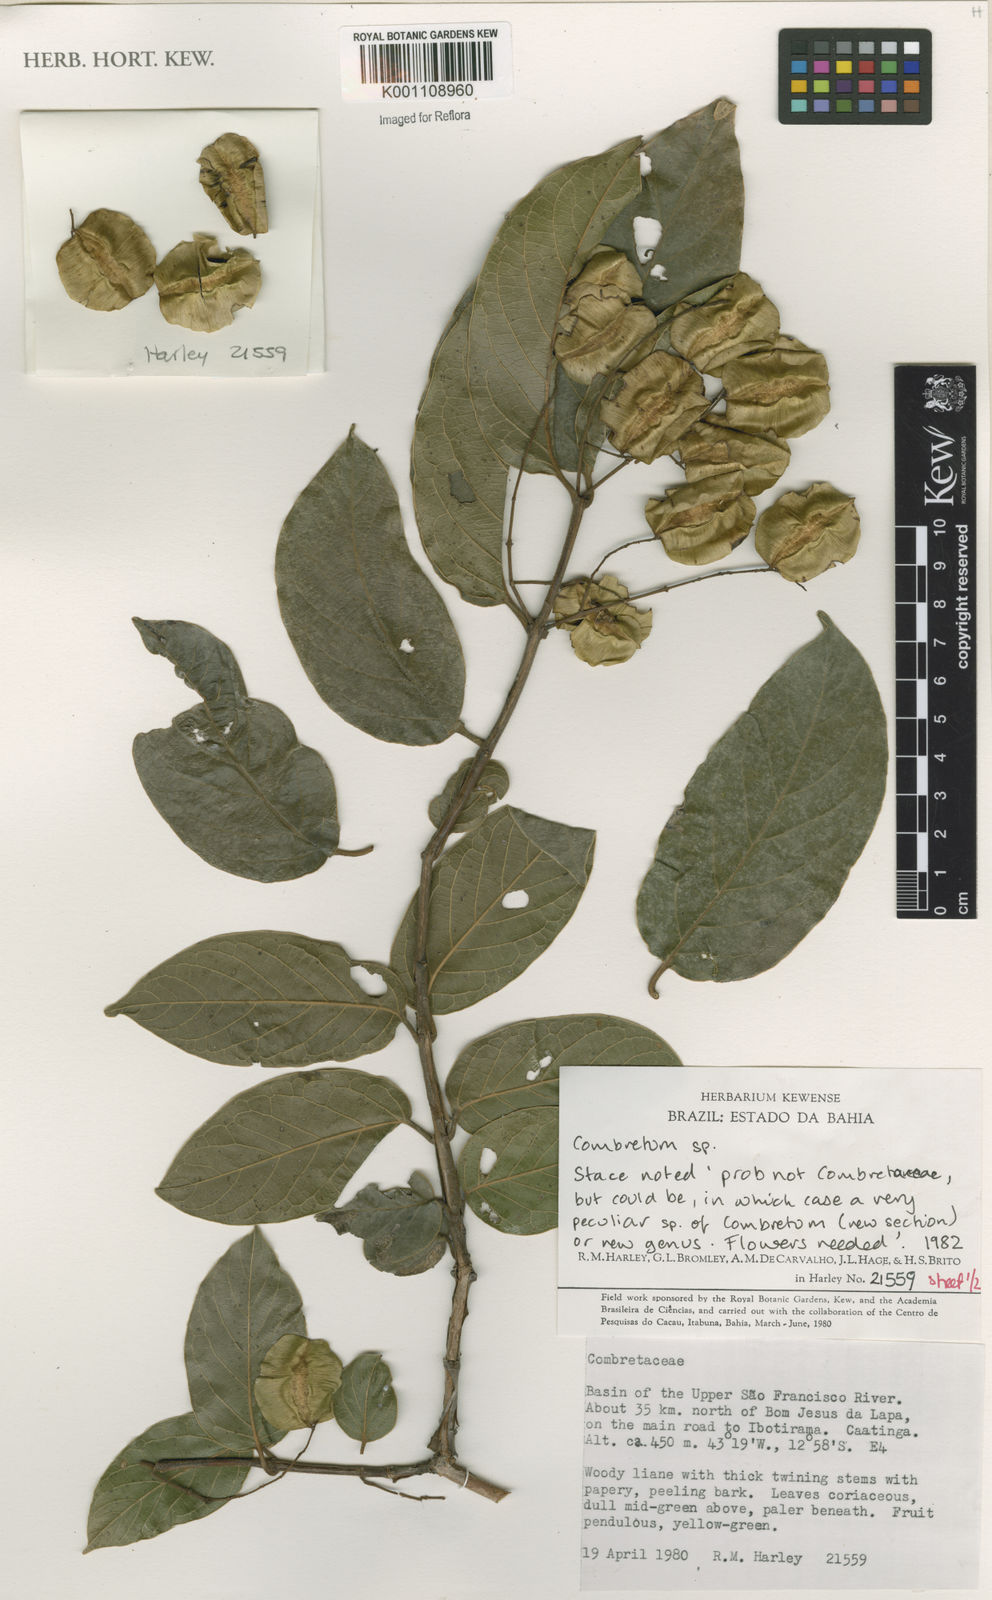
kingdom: Plantae
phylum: Tracheophyta
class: Magnoliopsida
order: Myrtales
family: Combretaceae
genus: Combretum
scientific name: Combretum glaucocarpum
